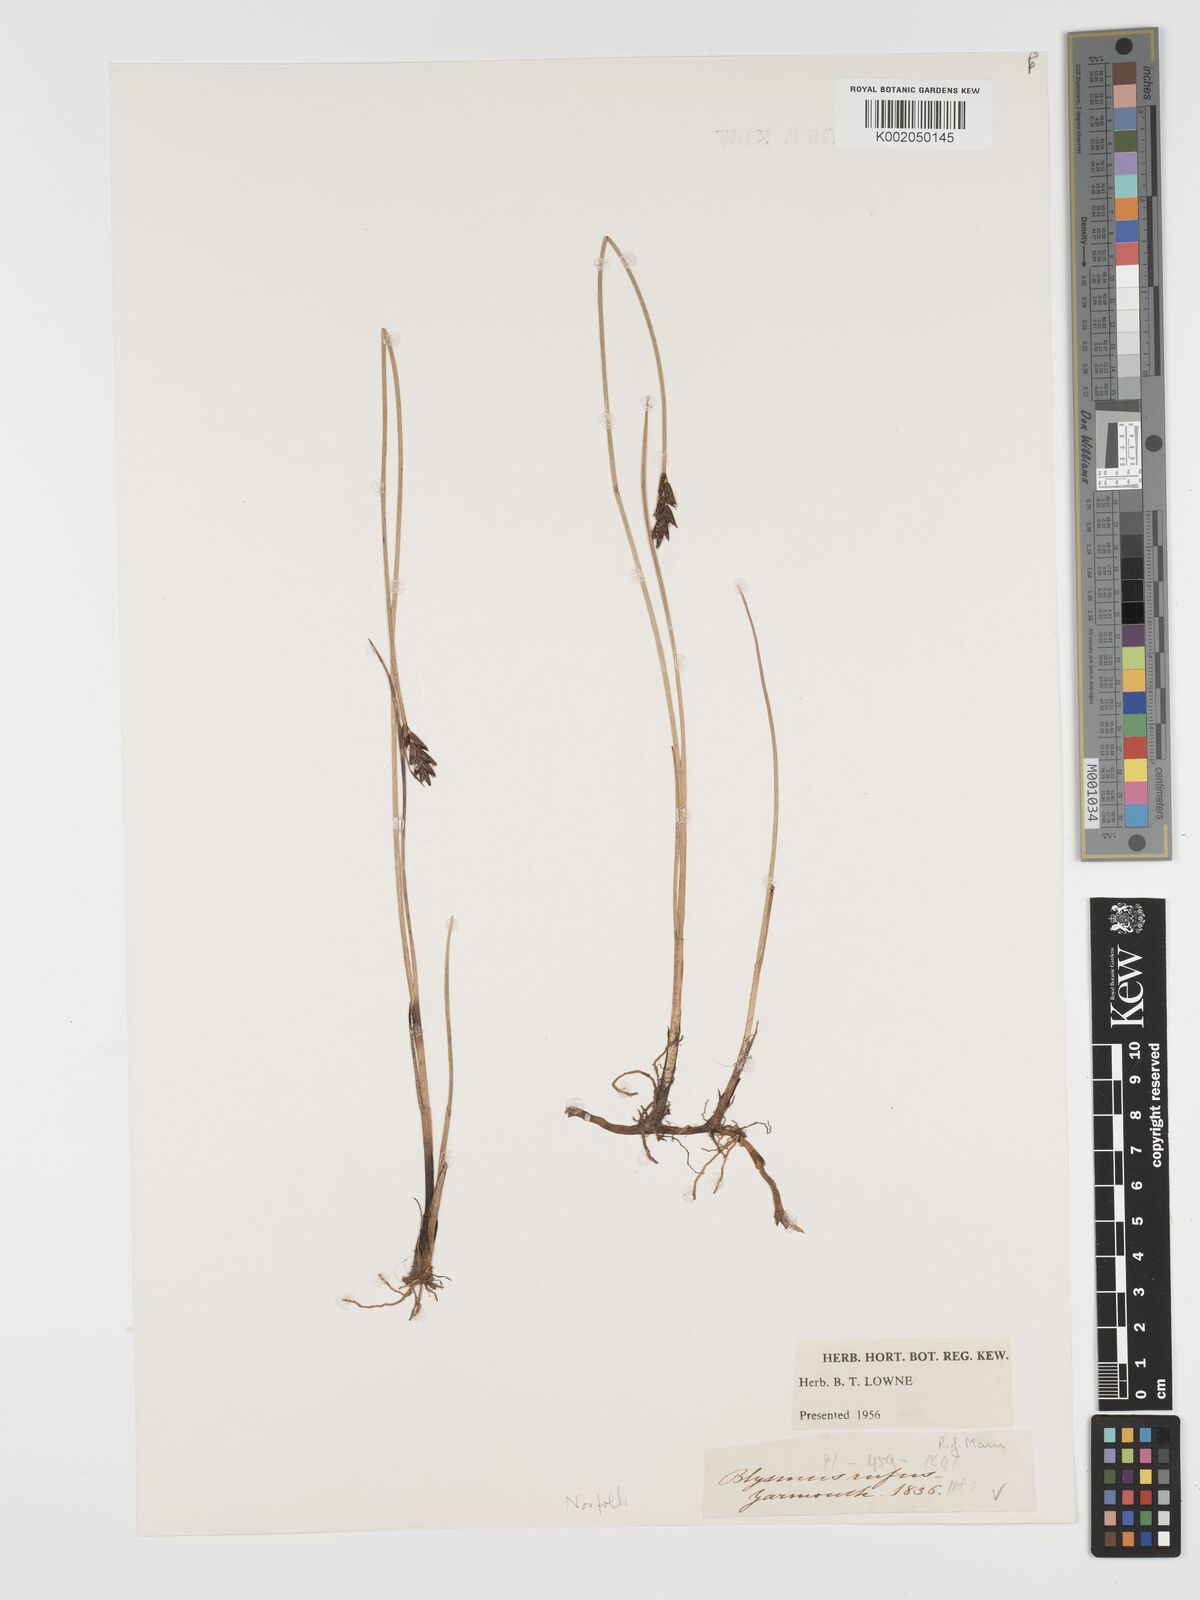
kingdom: Plantae
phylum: Tracheophyta
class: Liliopsida
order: Poales
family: Cyperaceae
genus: Blysmus
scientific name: Blysmus rufus
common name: Saltmarsh flat-sedge
